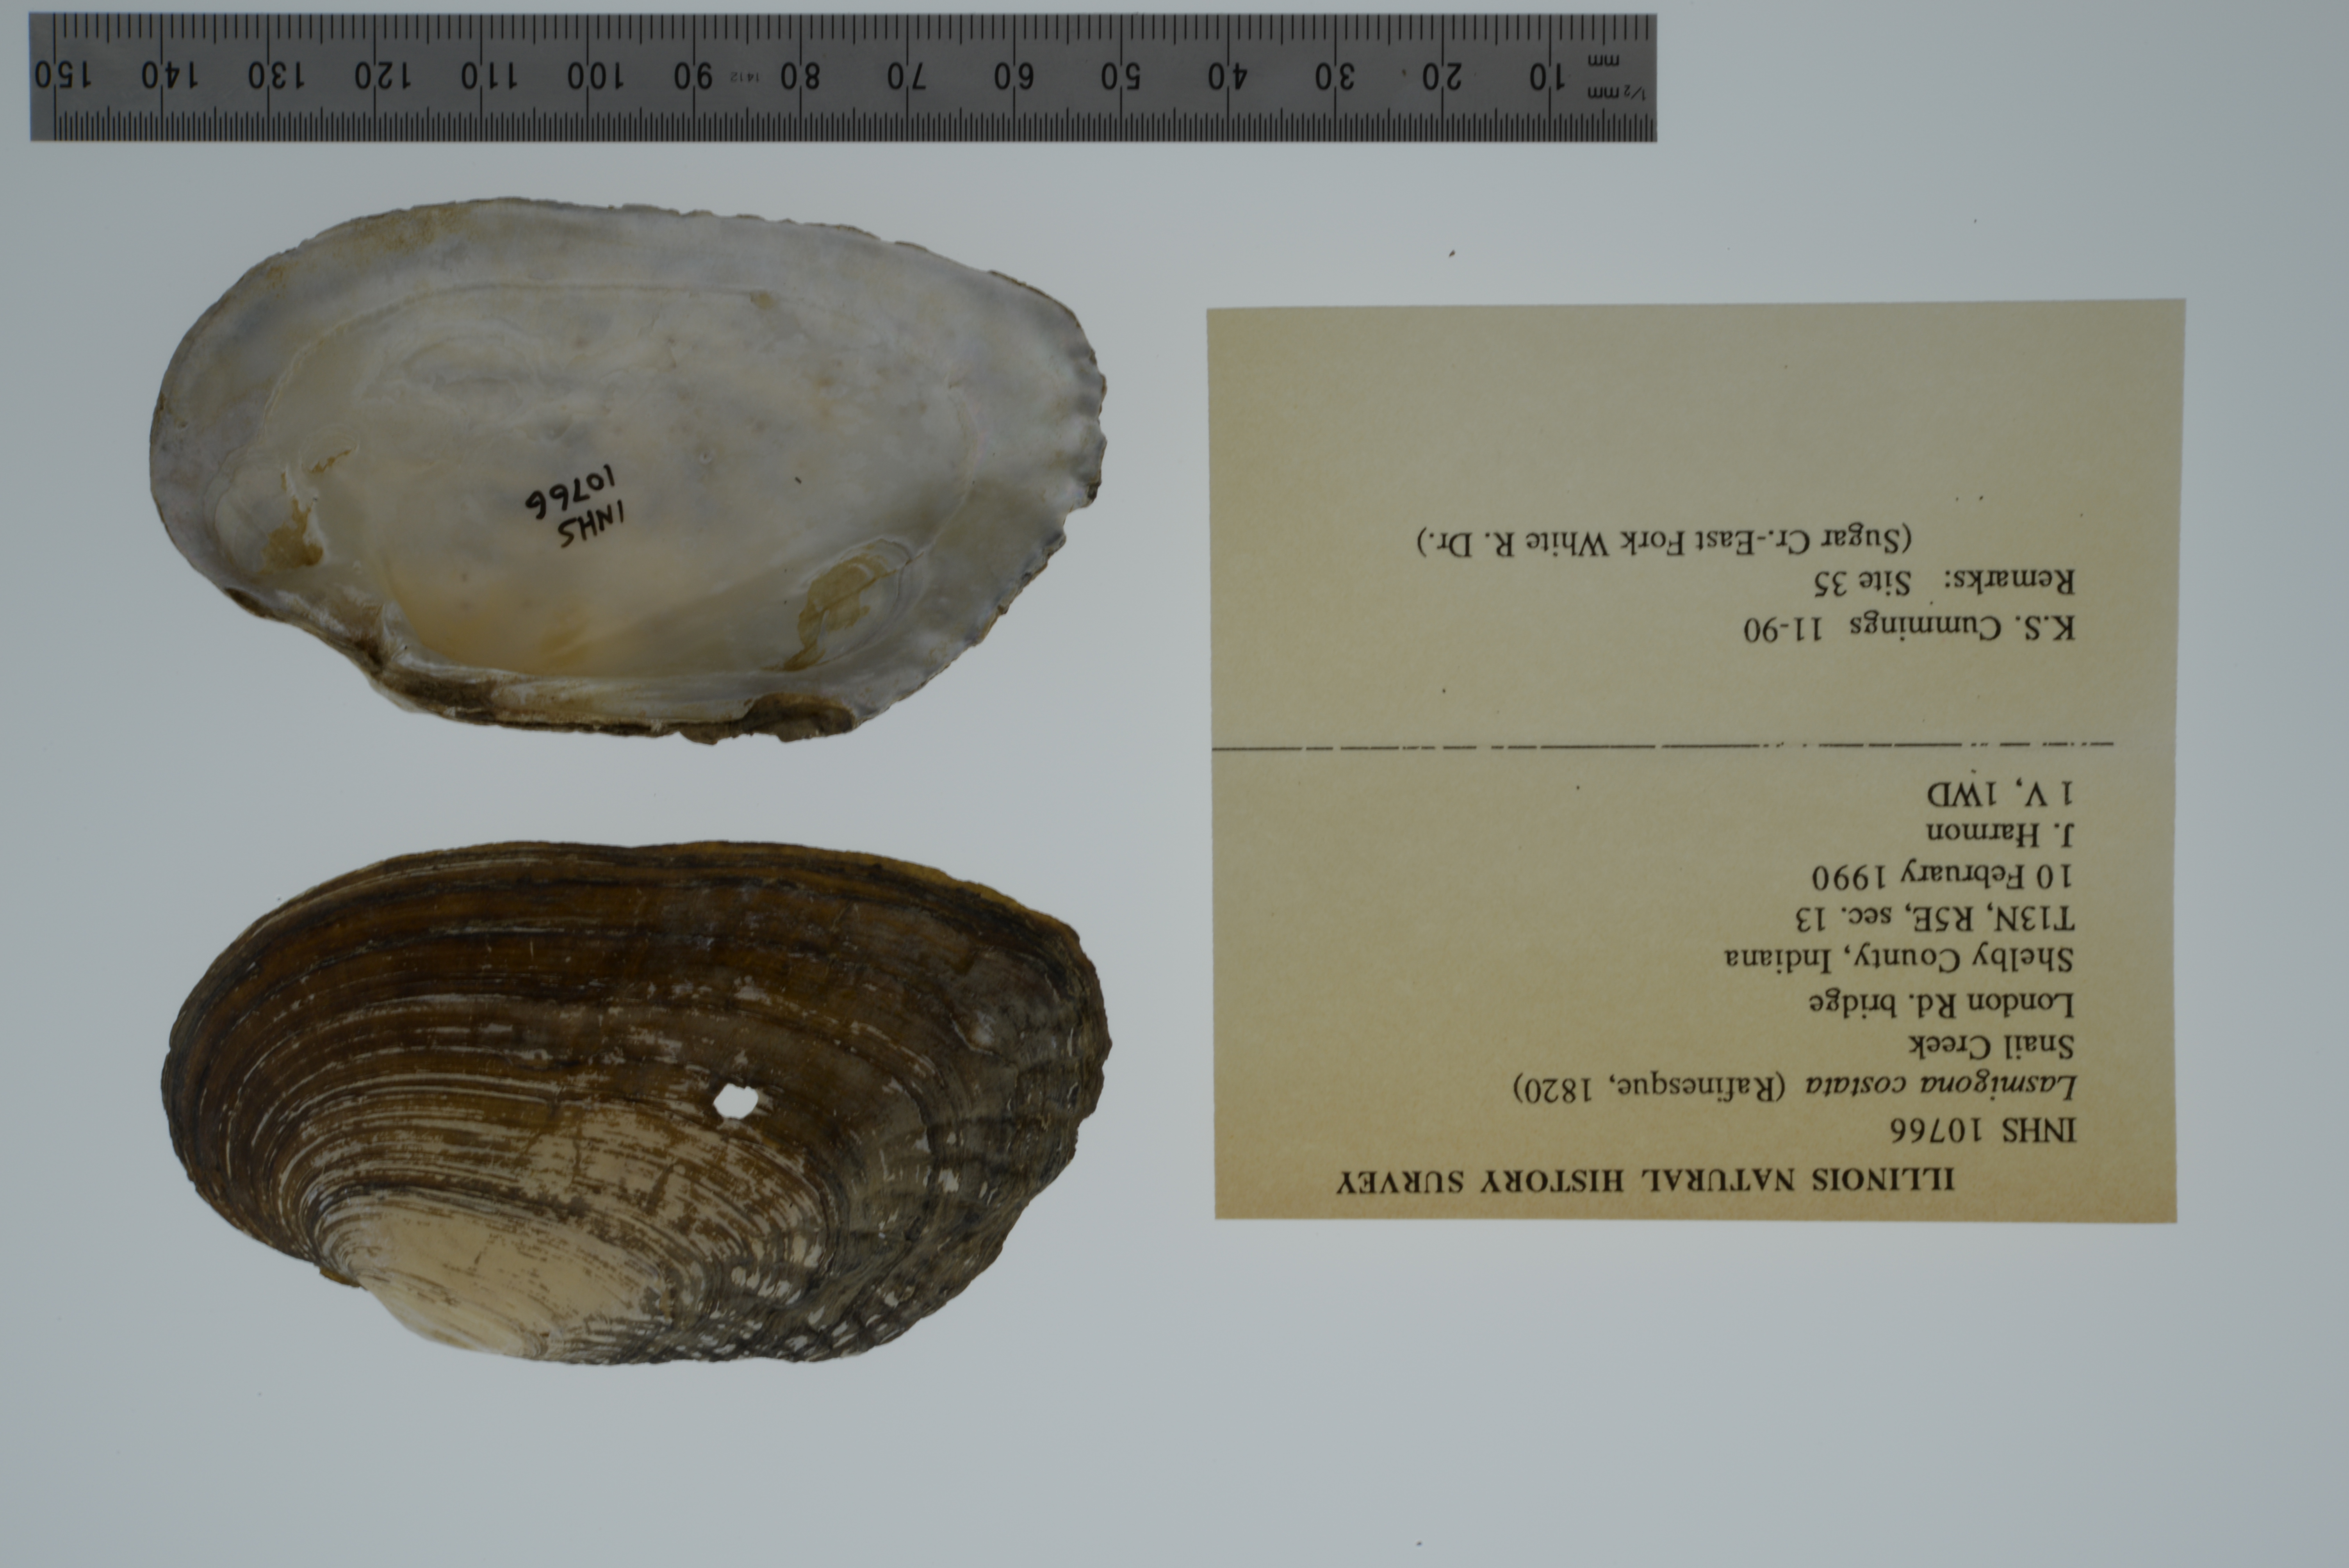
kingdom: Animalia
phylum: Mollusca
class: Bivalvia
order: Unionida
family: Unionidae
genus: Lasmigona
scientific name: Lasmigona costata
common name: Flutedshell
